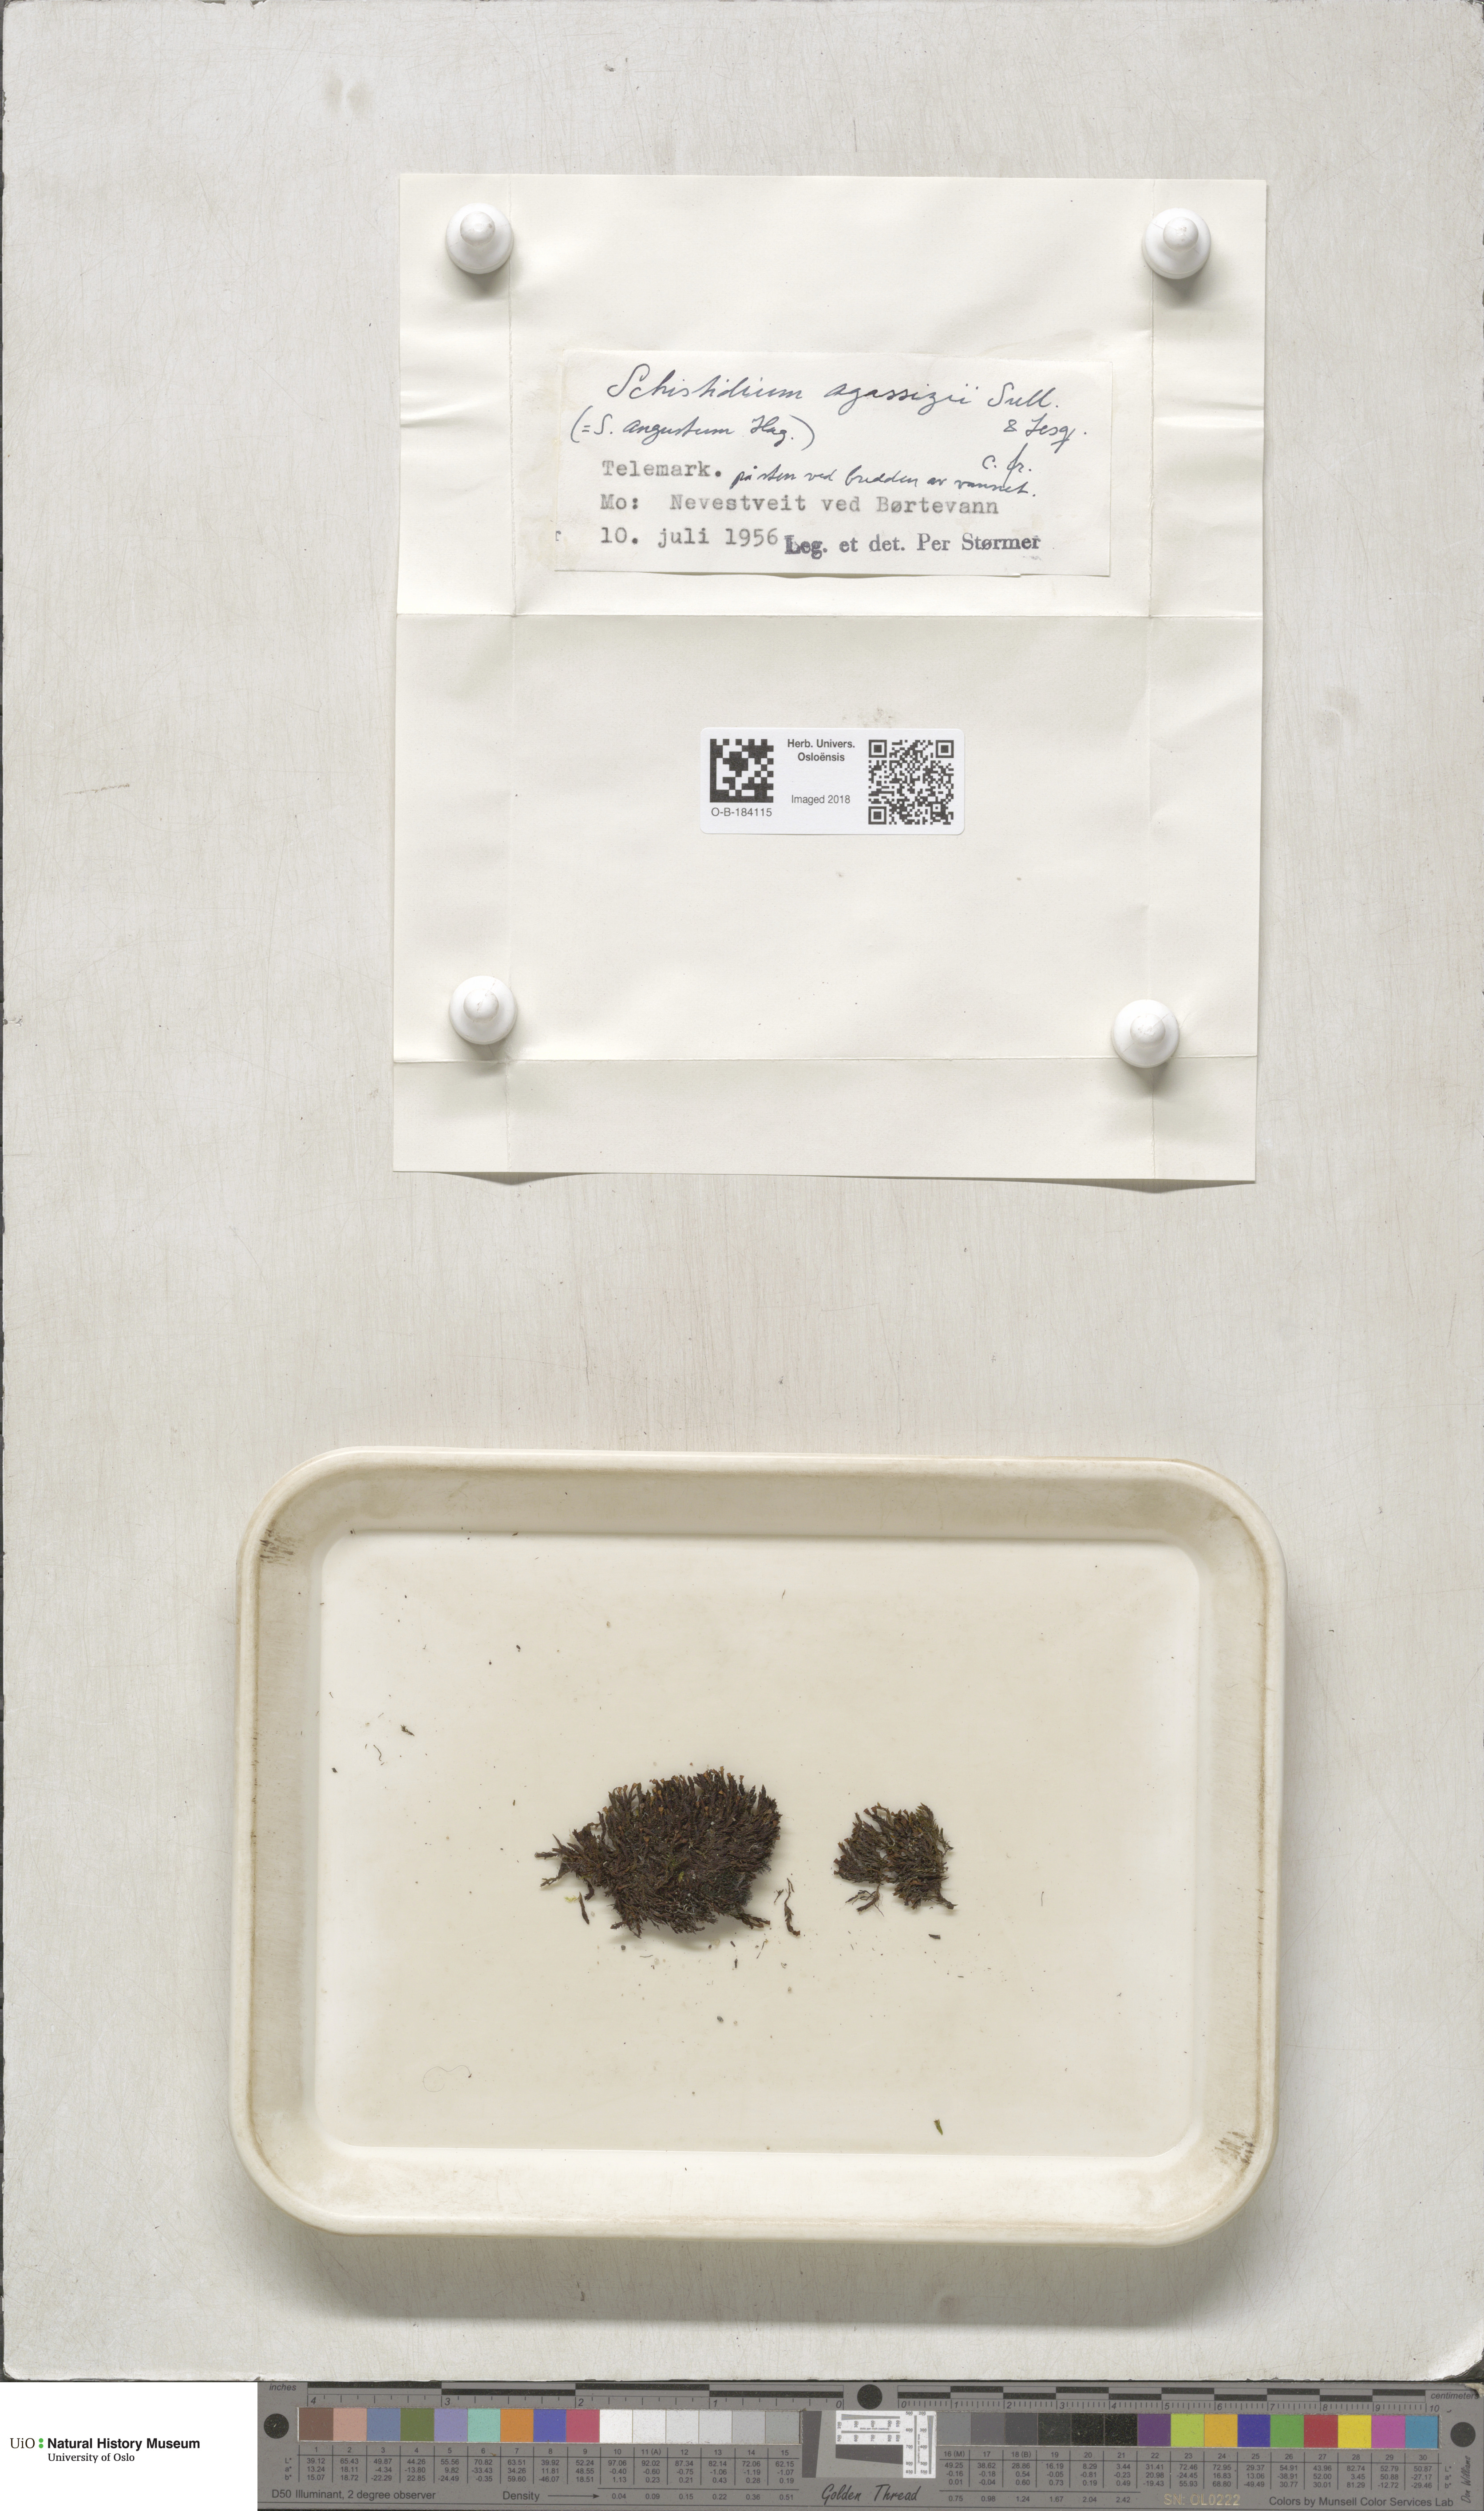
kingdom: Plantae
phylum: Bryophyta
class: Bryopsida
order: Grimmiales
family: Grimmiaceae
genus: Schistidium
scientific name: Schistidium agassizii
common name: Agassiz's bloom moss
